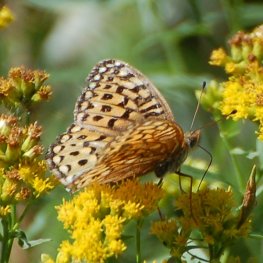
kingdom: Animalia
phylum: Arthropoda
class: Insecta
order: Lepidoptera
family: Nymphalidae
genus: Speyeria
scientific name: Speyeria atlantis
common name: Atlantis Fritillary
